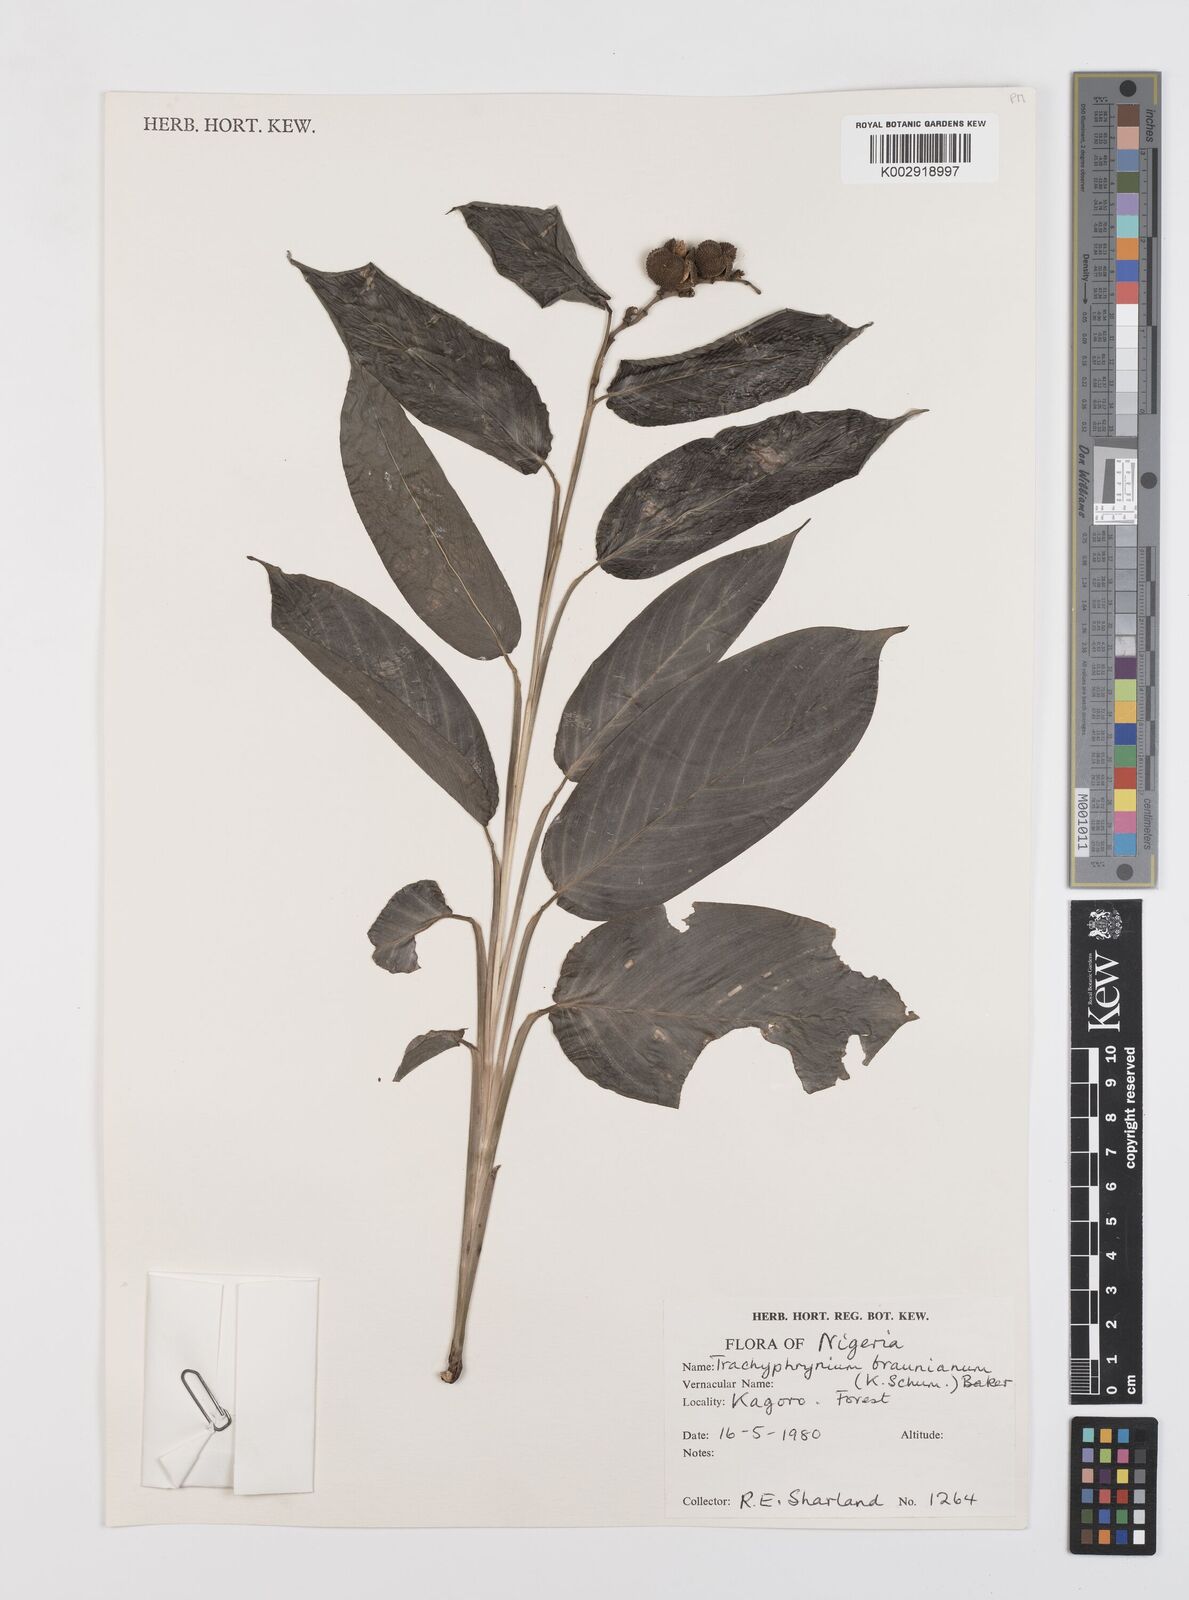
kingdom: Plantae
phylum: Tracheophyta
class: Liliopsida
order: Zingiberales
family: Marantaceae
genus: Trachyphrynium
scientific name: Trachyphrynium braunianum
